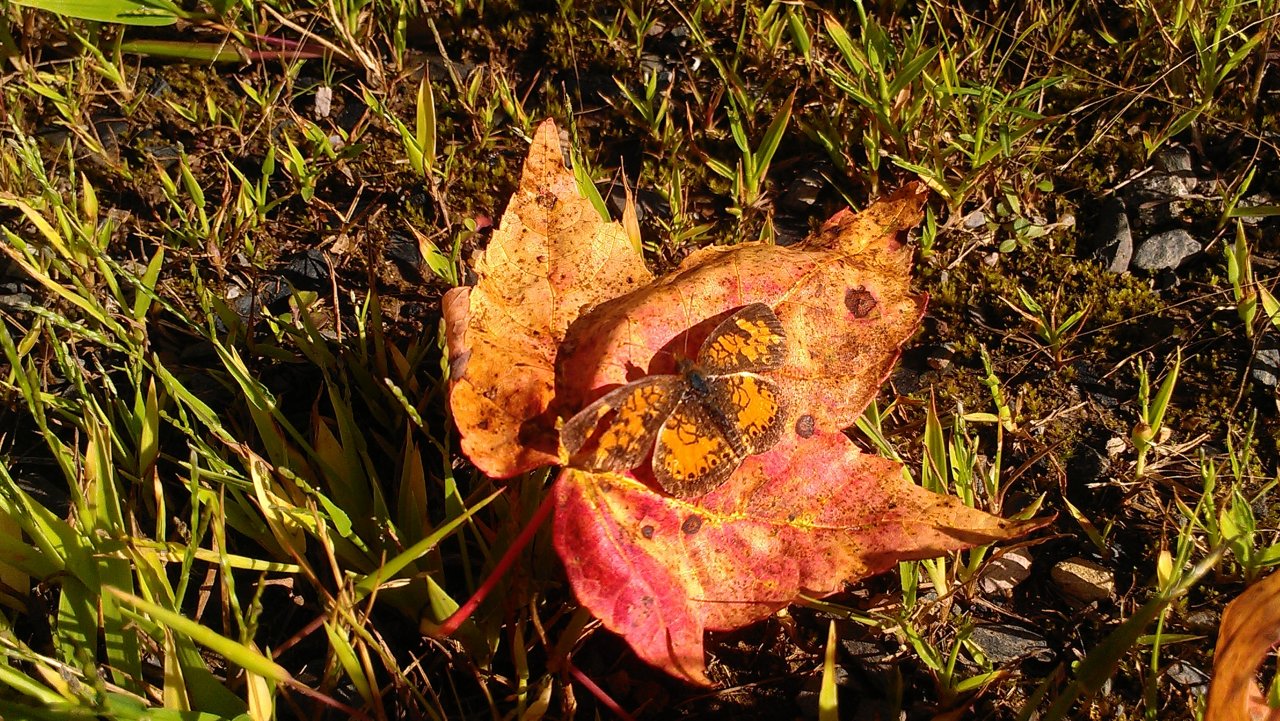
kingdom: Animalia
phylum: Arthropoda
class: Insecta
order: Lepidoptera
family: Nymphalidae
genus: Phyciodes
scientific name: Phyciodes tharos
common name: Northern Crescent
